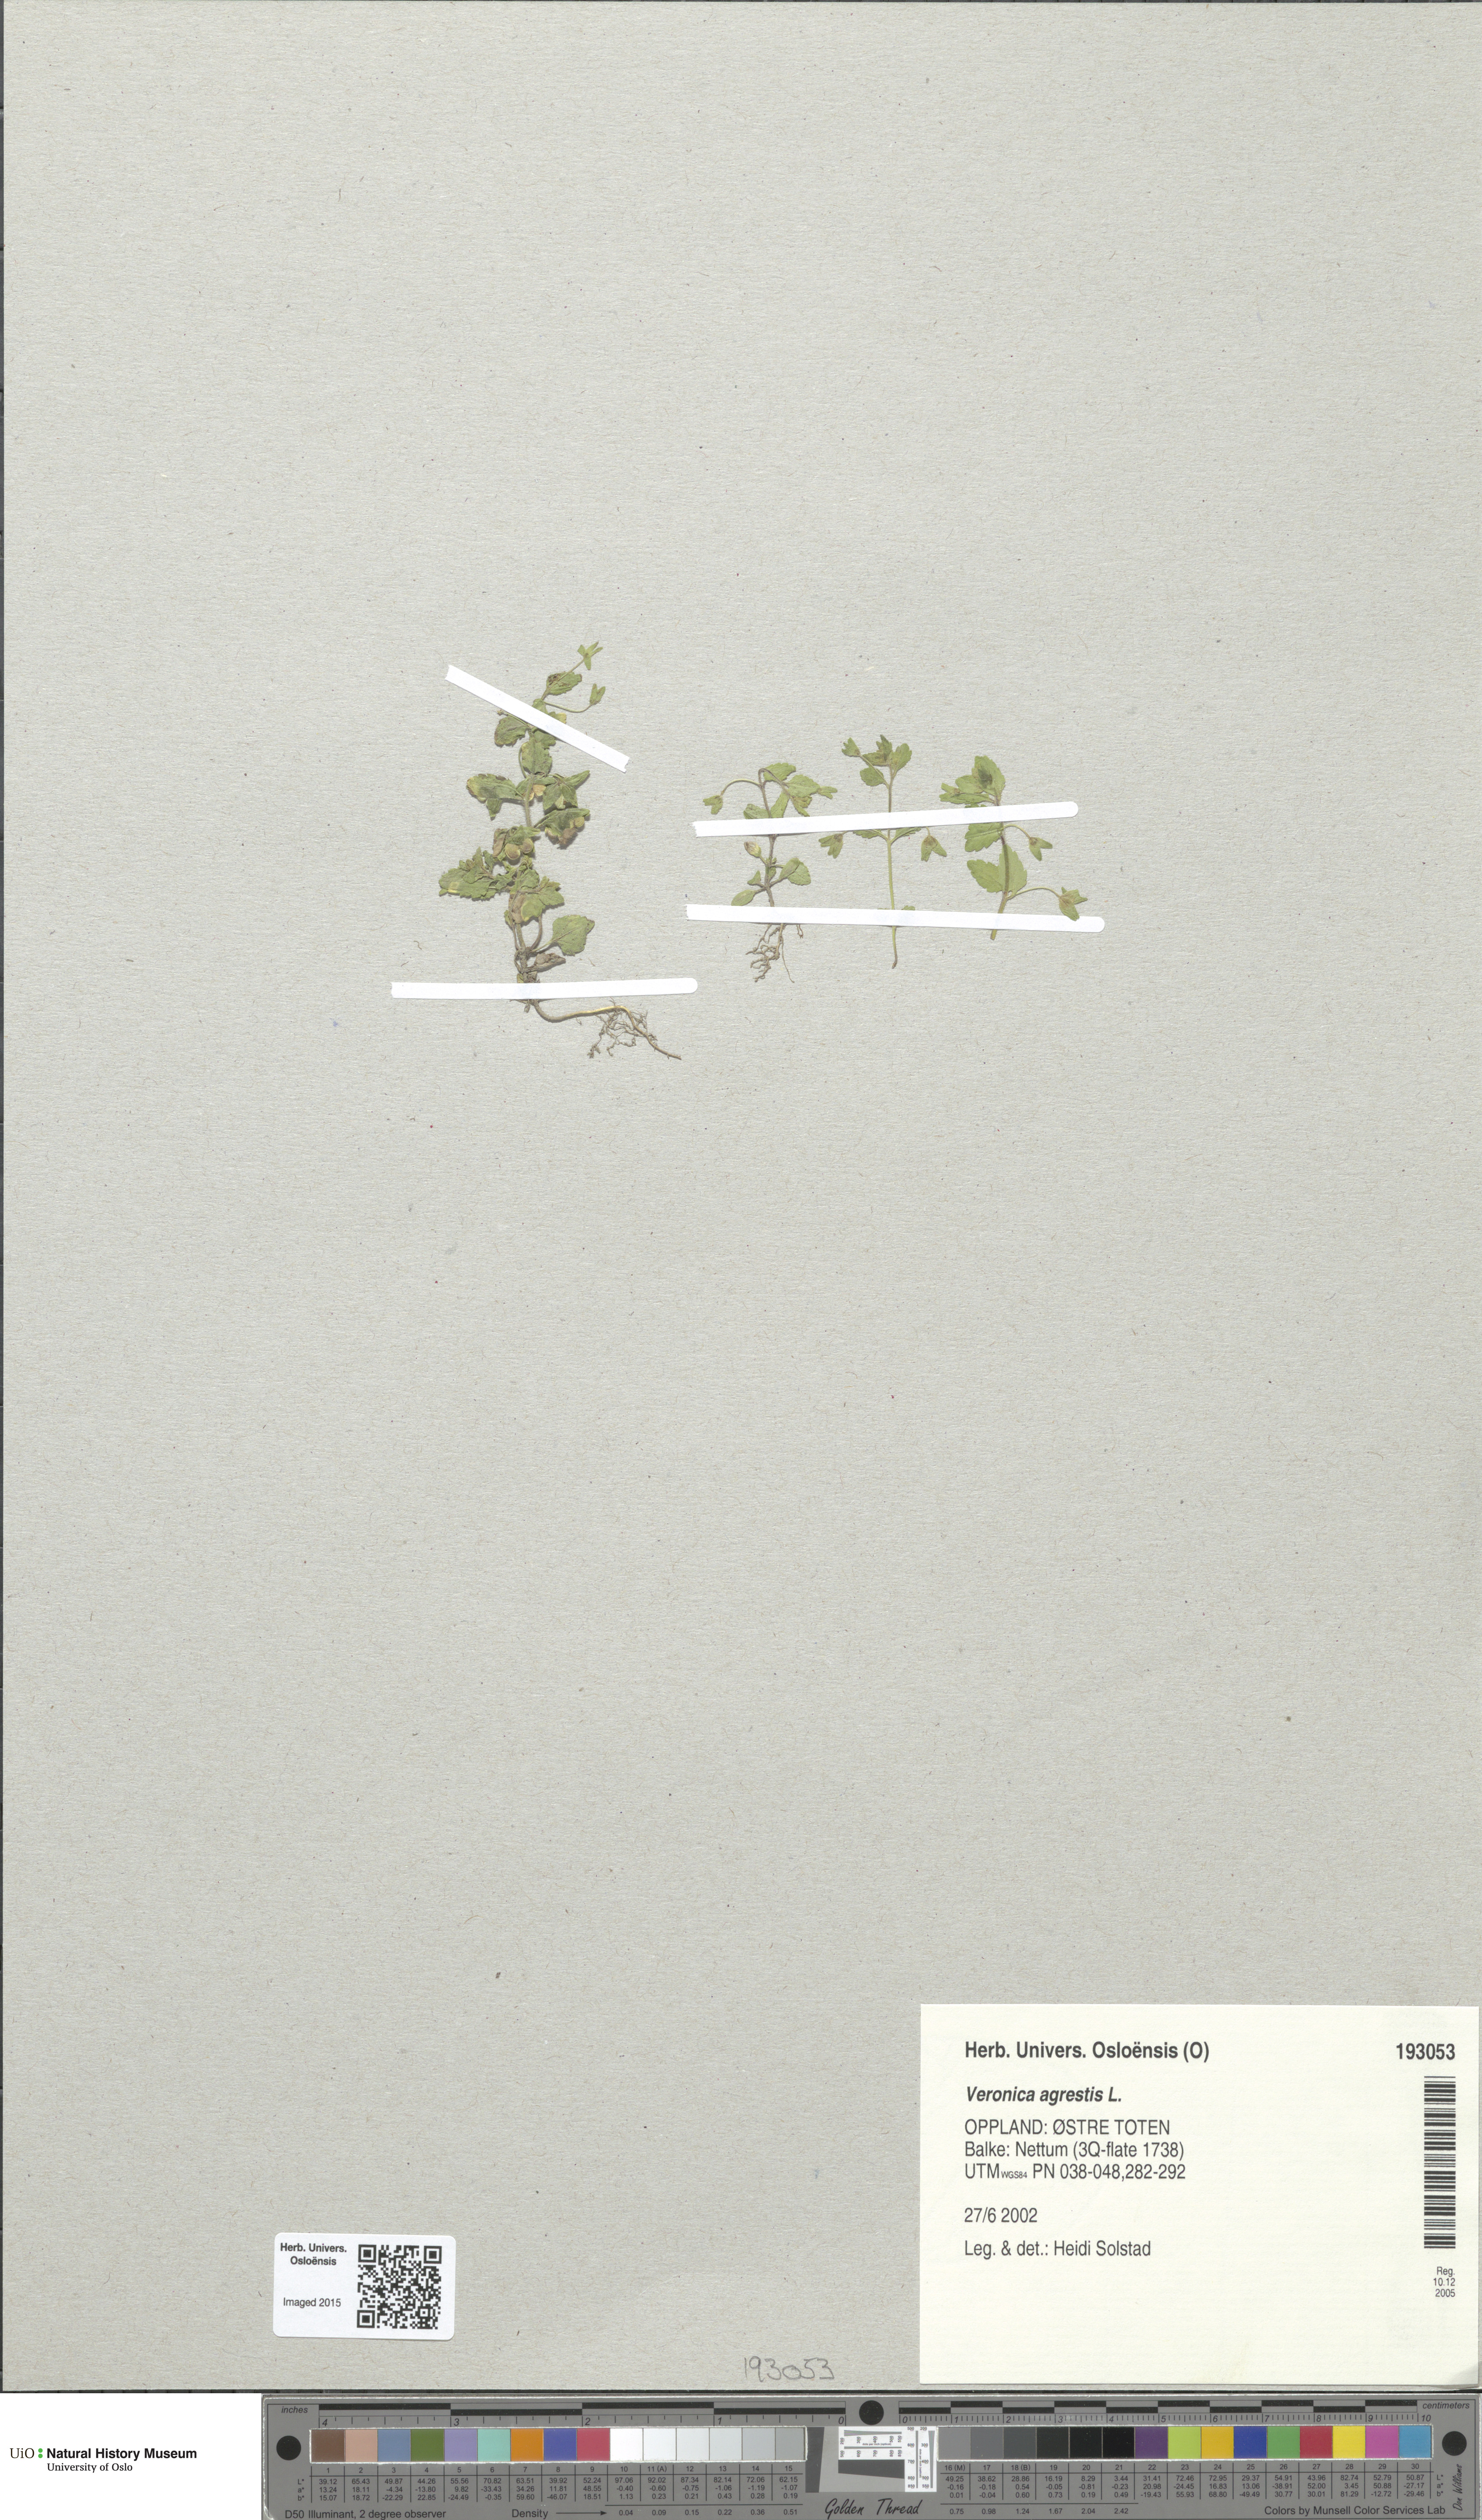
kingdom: Plantae
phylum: Tracheophyta
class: Magnoliopsida
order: Lamiales
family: Plantaginaceae
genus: Veronica
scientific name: Veronica agrestis
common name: Green field-speedwell
